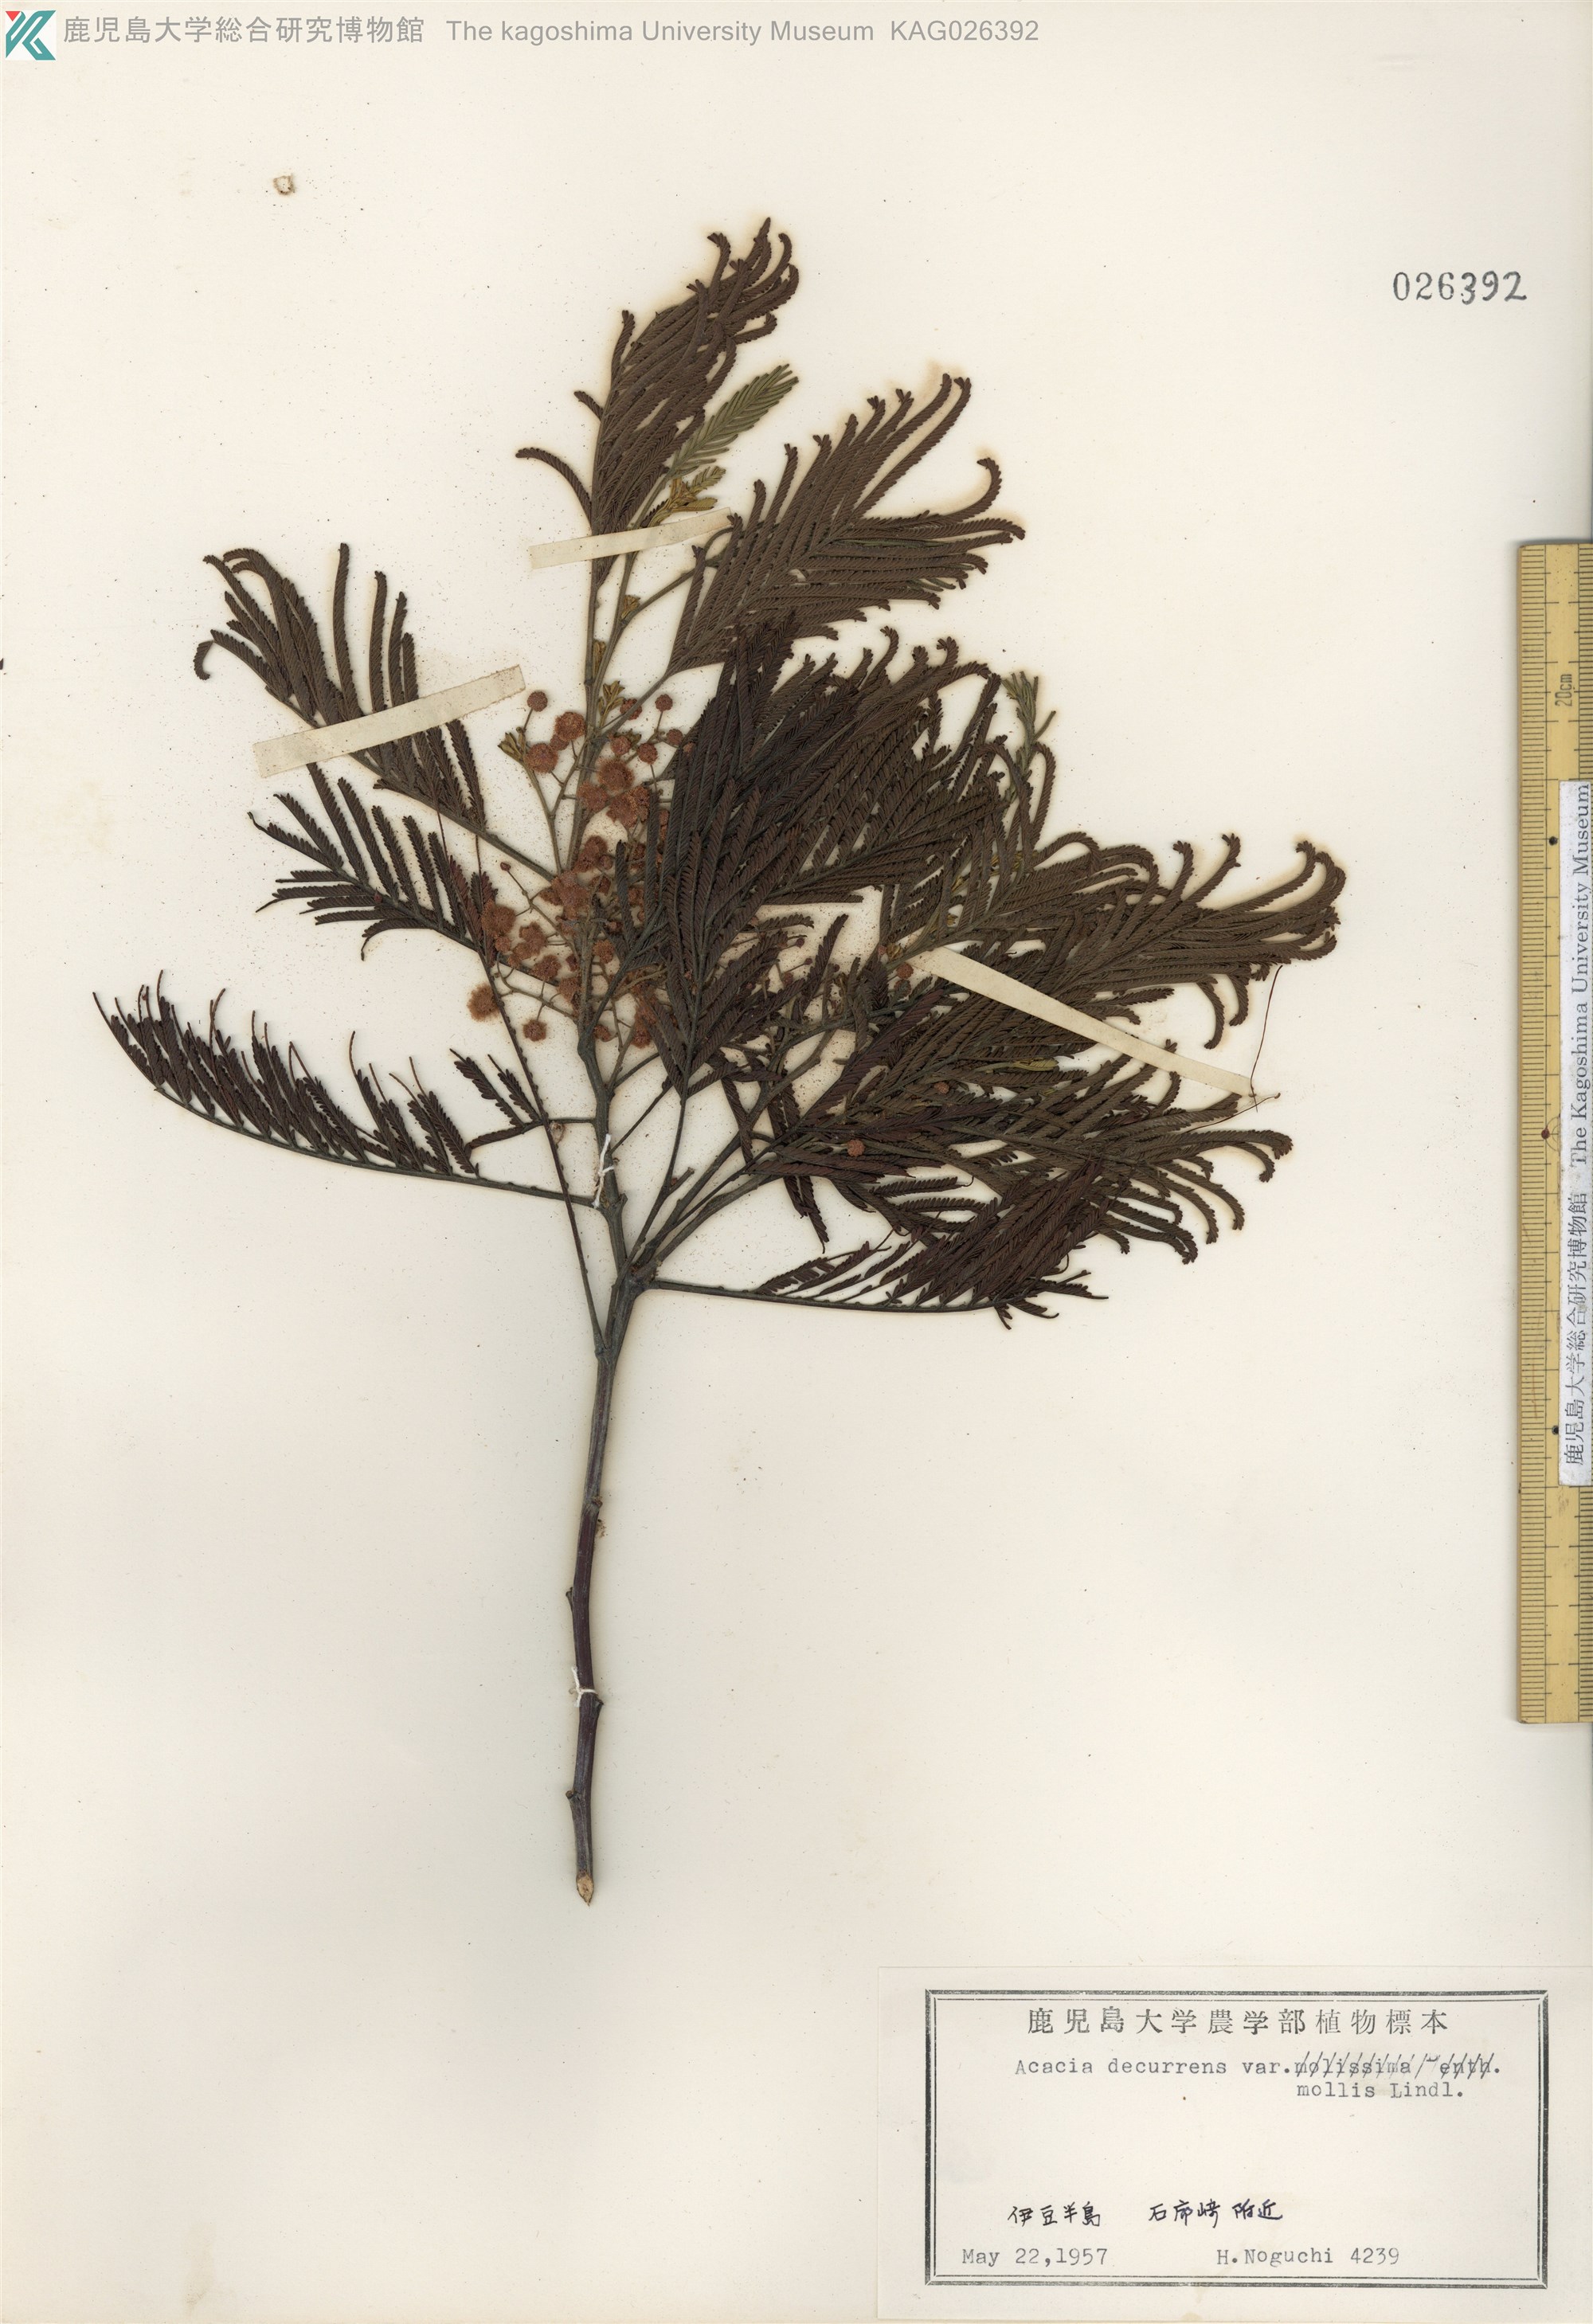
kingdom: Plantae
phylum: Tracheophyta
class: Magnoliopsida
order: Fabales
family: Fabaceae
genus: Acacia
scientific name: Acacia dealbata
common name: Silver wattle
